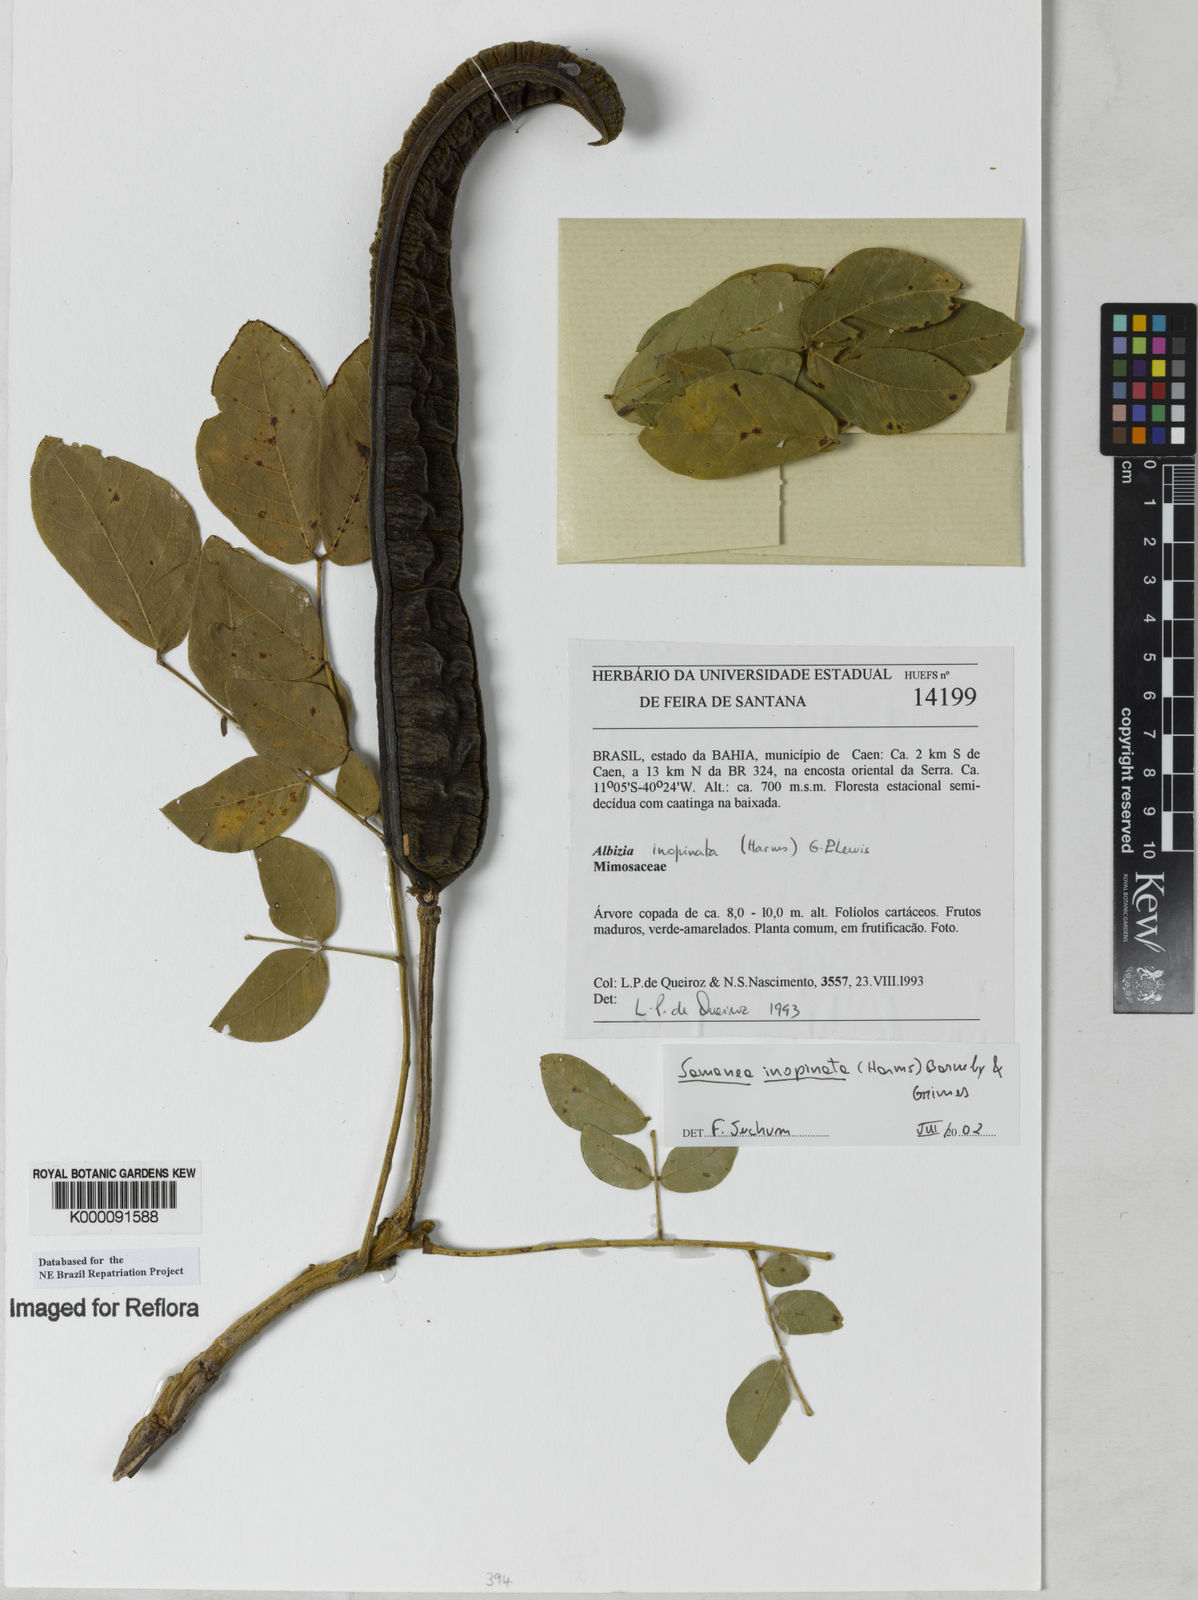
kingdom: Plantae
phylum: Tracheophyta
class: Magnoliopsida
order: Fabales
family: Fabaceae
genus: Samanea
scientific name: Samanea inopinata
